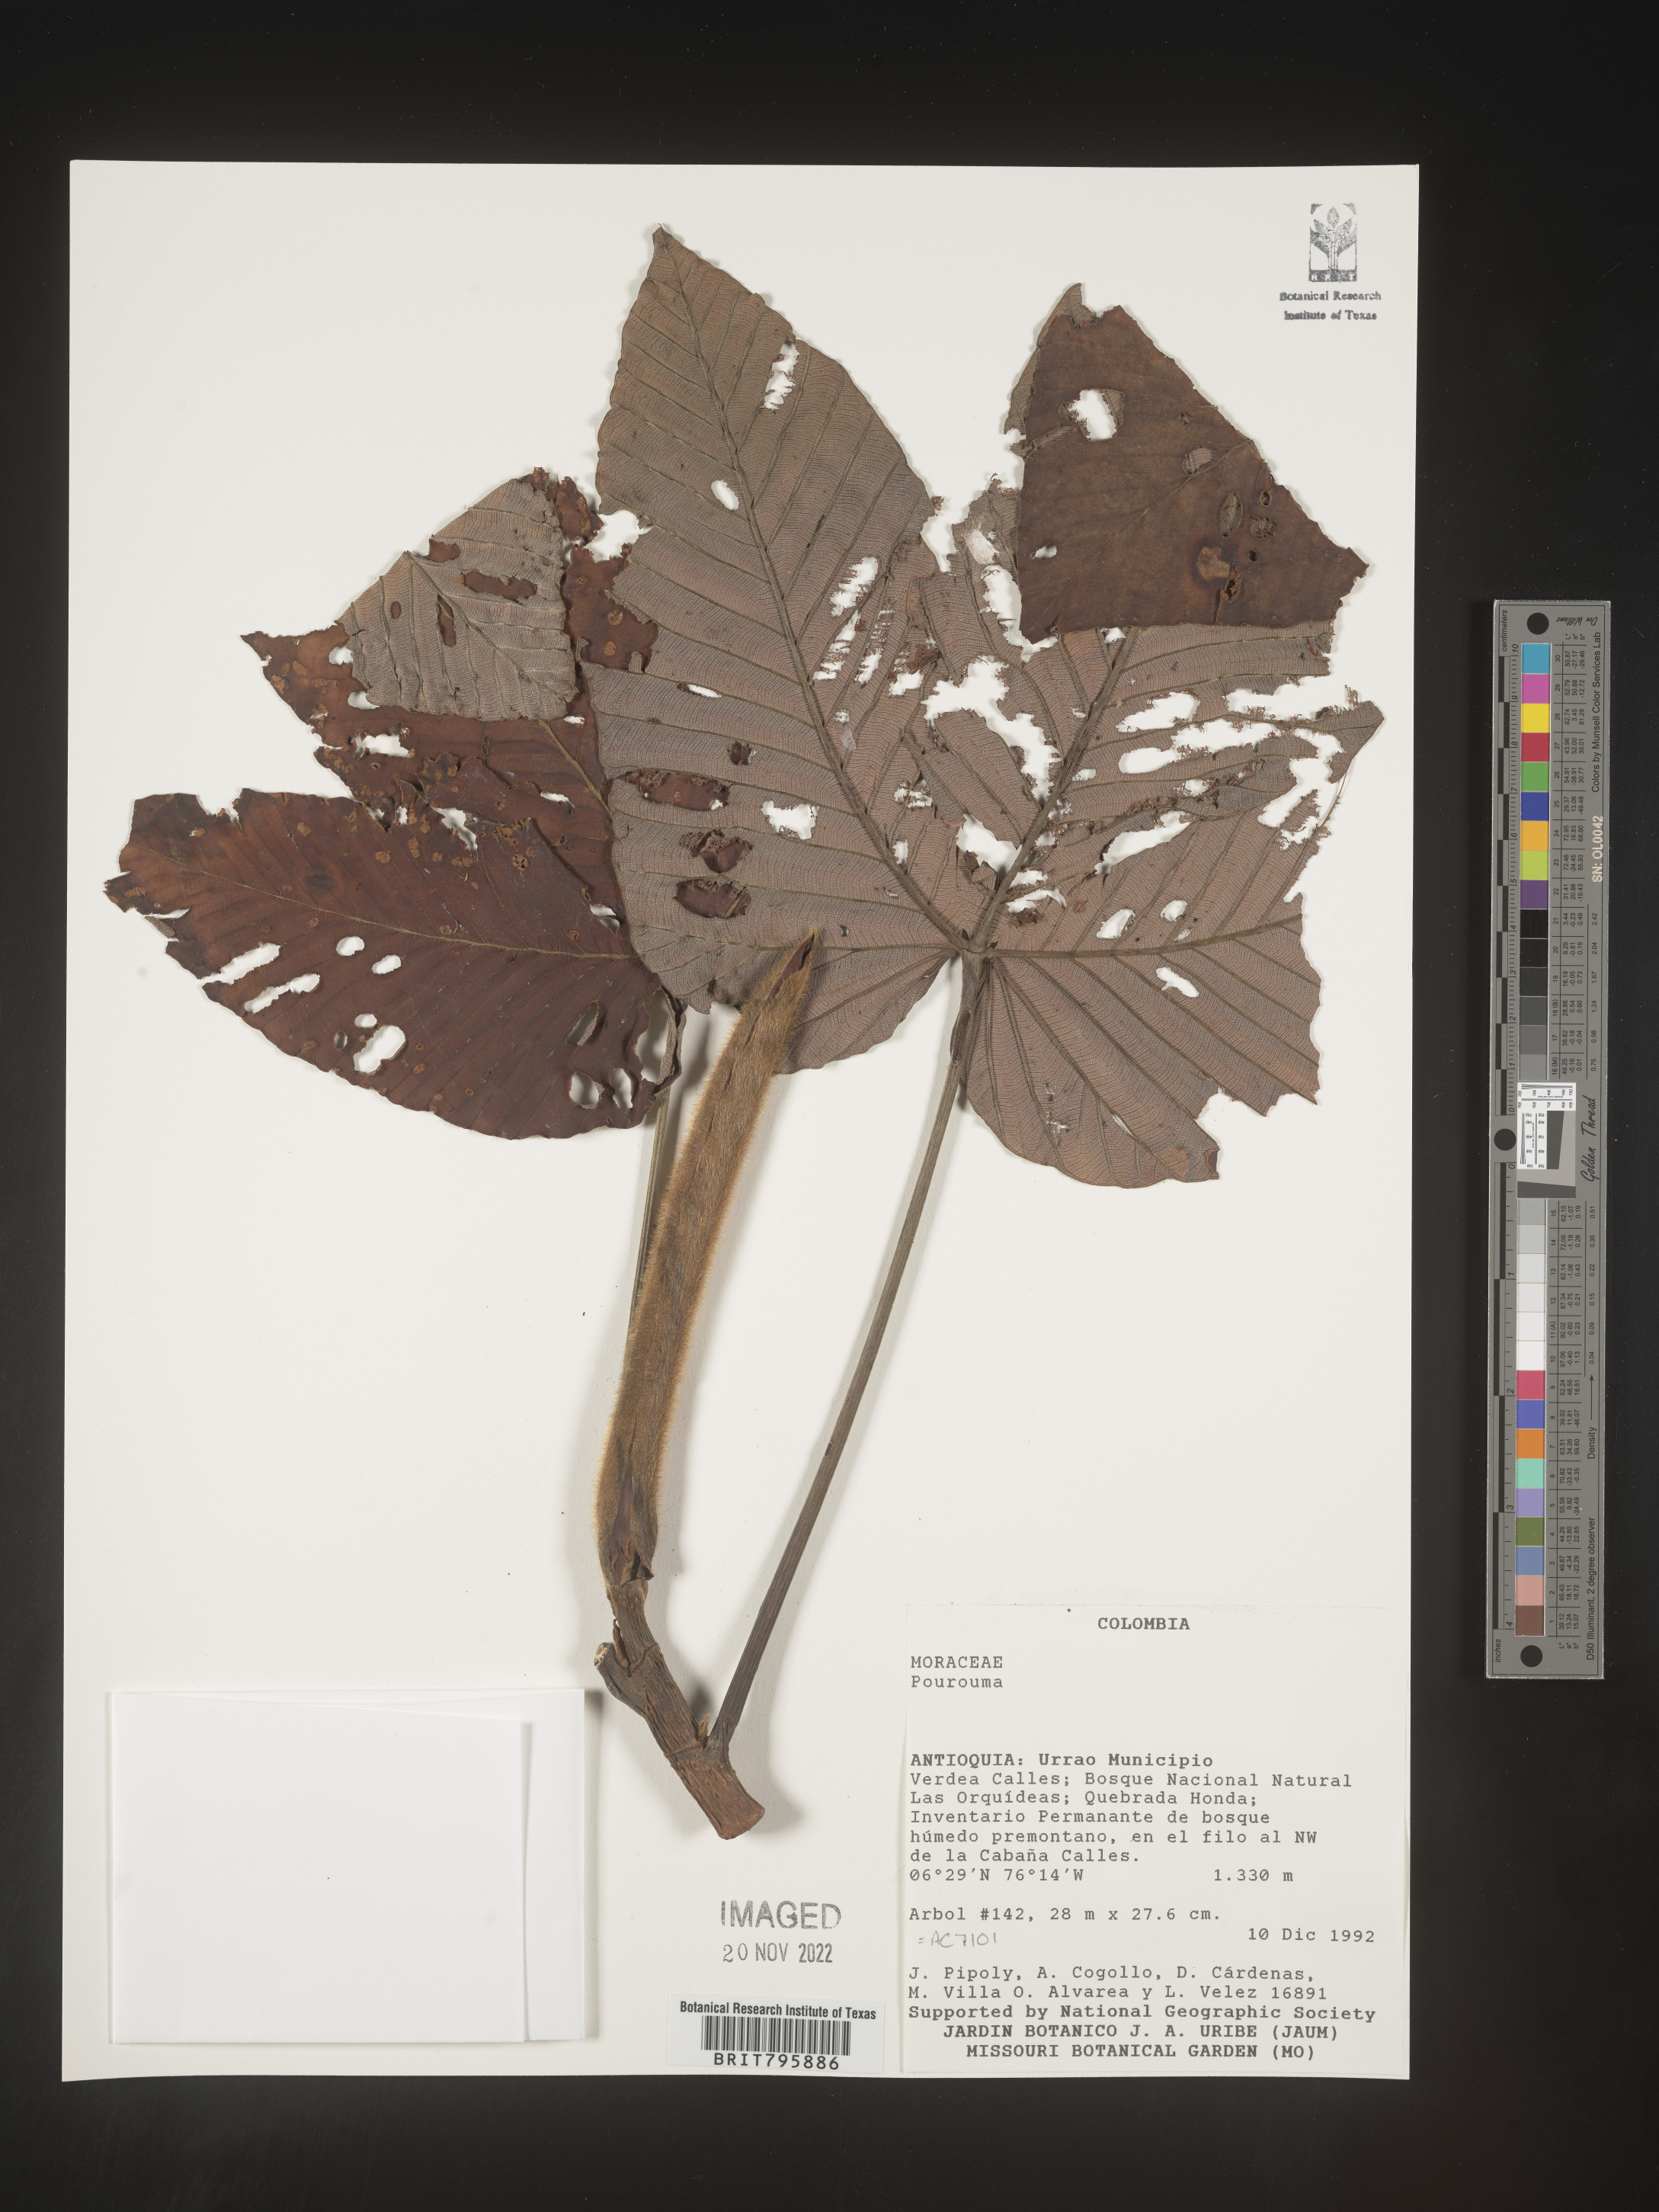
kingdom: Plantae
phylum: Tracheophyta
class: Magnoliopsida
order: Rosales
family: Urticaceae
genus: Pourouma
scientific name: Pourouma
